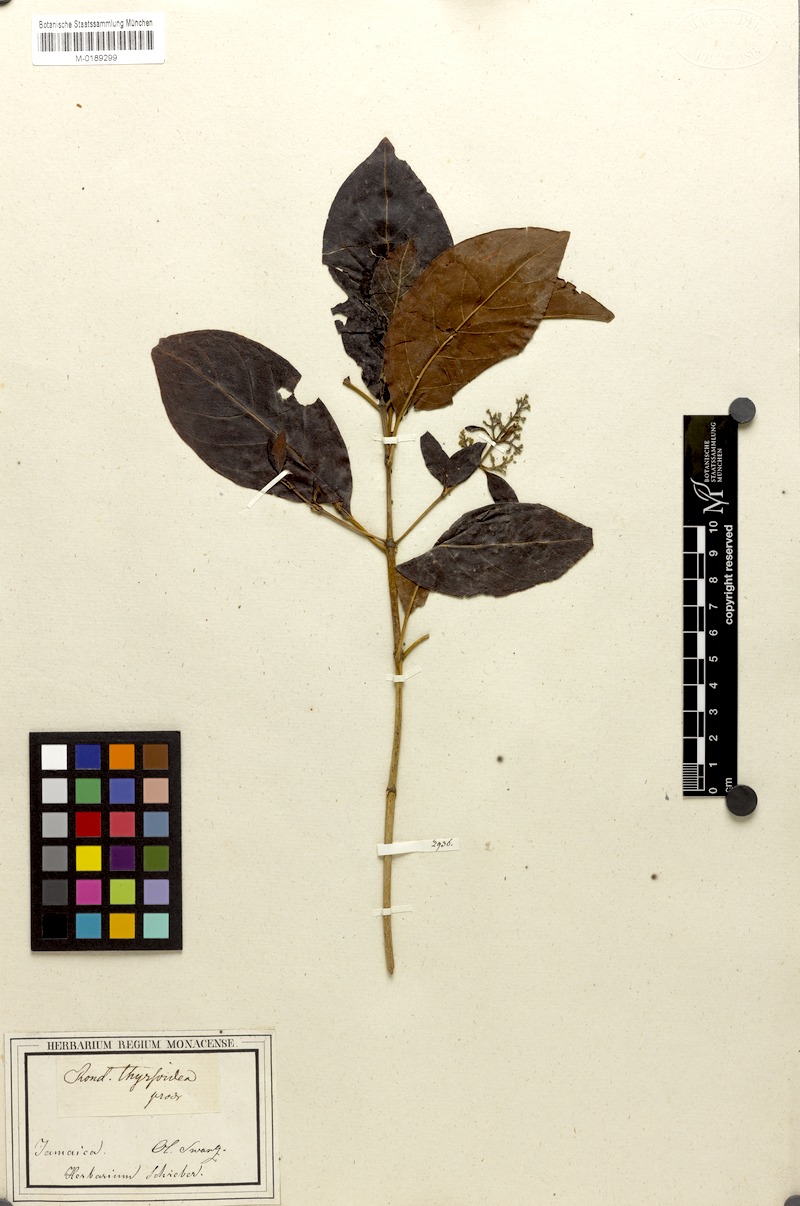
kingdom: Plantae
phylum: Tracheophyta
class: Magnoliopsida
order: Gentianales
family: Rubiaceae
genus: Rondeletia
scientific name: Rondeletia stipularis
